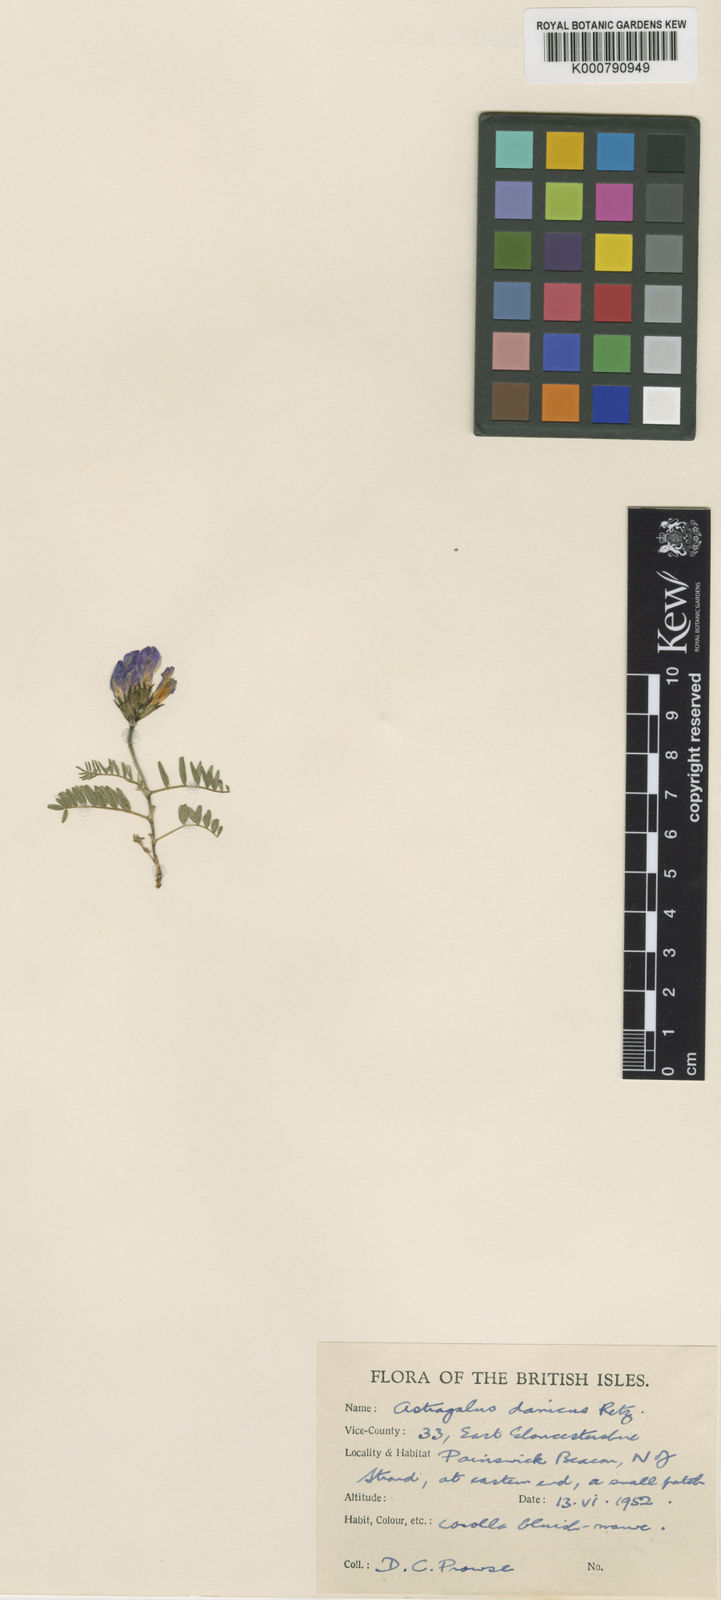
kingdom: Plantae
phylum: Tracheophyta
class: Magnoliopsida
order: Fabales
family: Fabaceae
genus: Astragalus
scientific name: Astragalus danicus
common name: Purple milk-vetch
